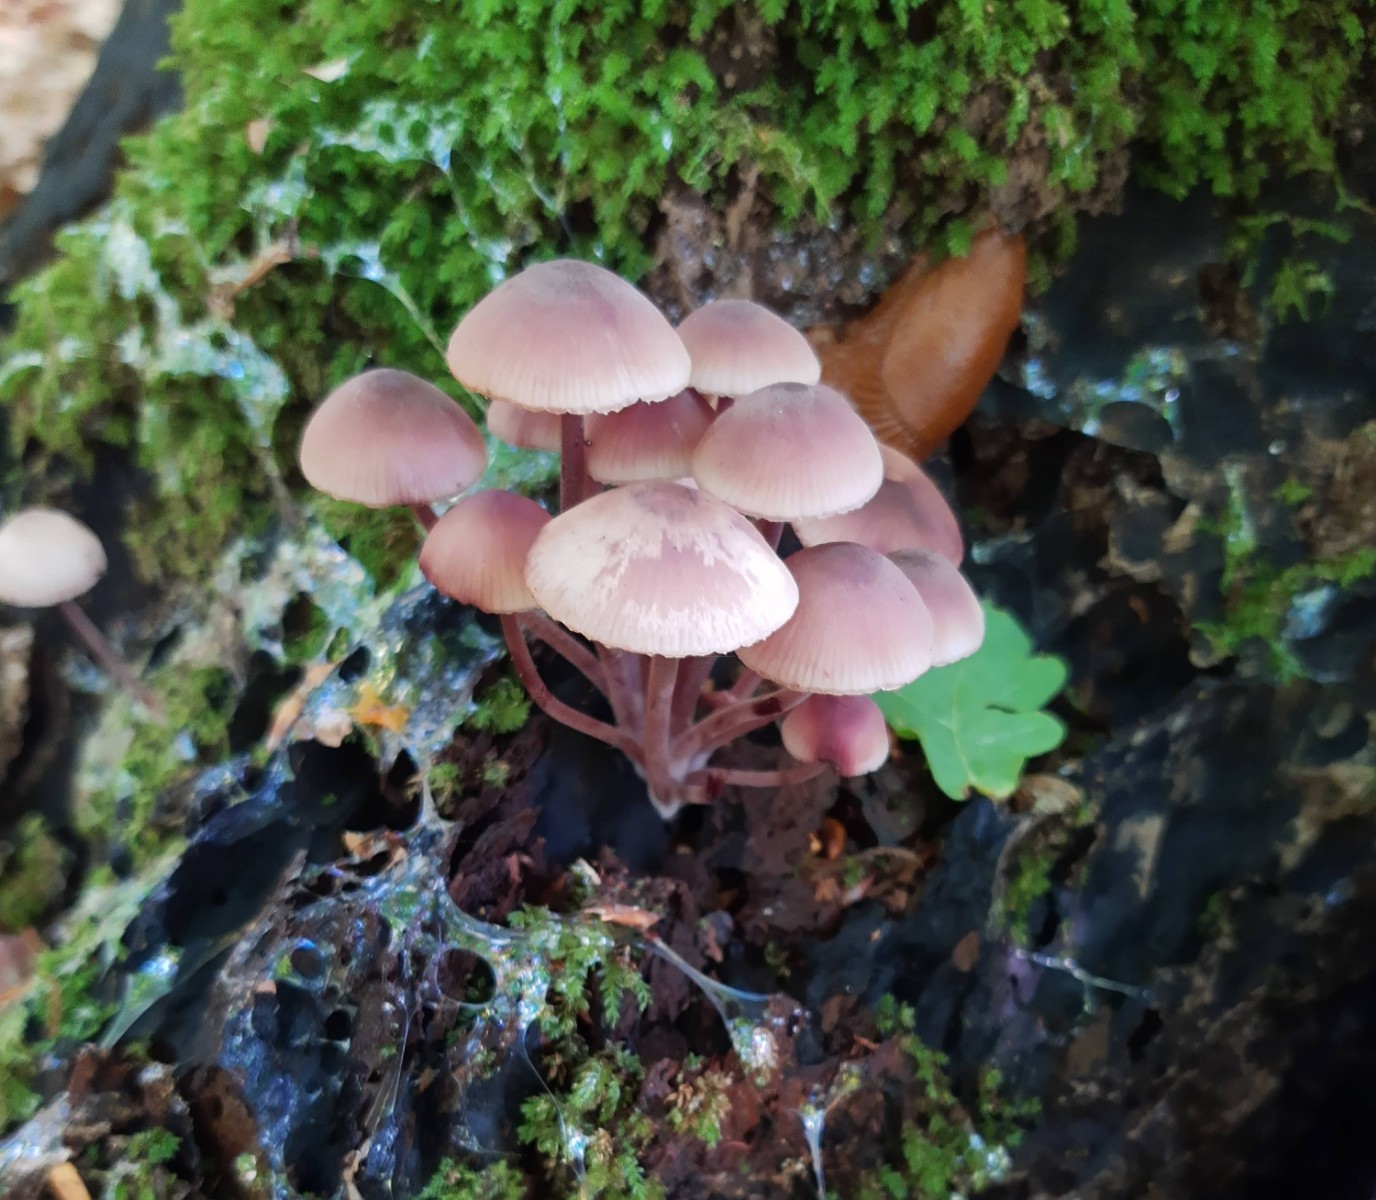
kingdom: Fungi
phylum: Basidiomycota
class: Agaricomycetes
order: Agaricales
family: Mycenaceae
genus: Mycena
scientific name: Mycena haematopus
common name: blødende huesvamp
